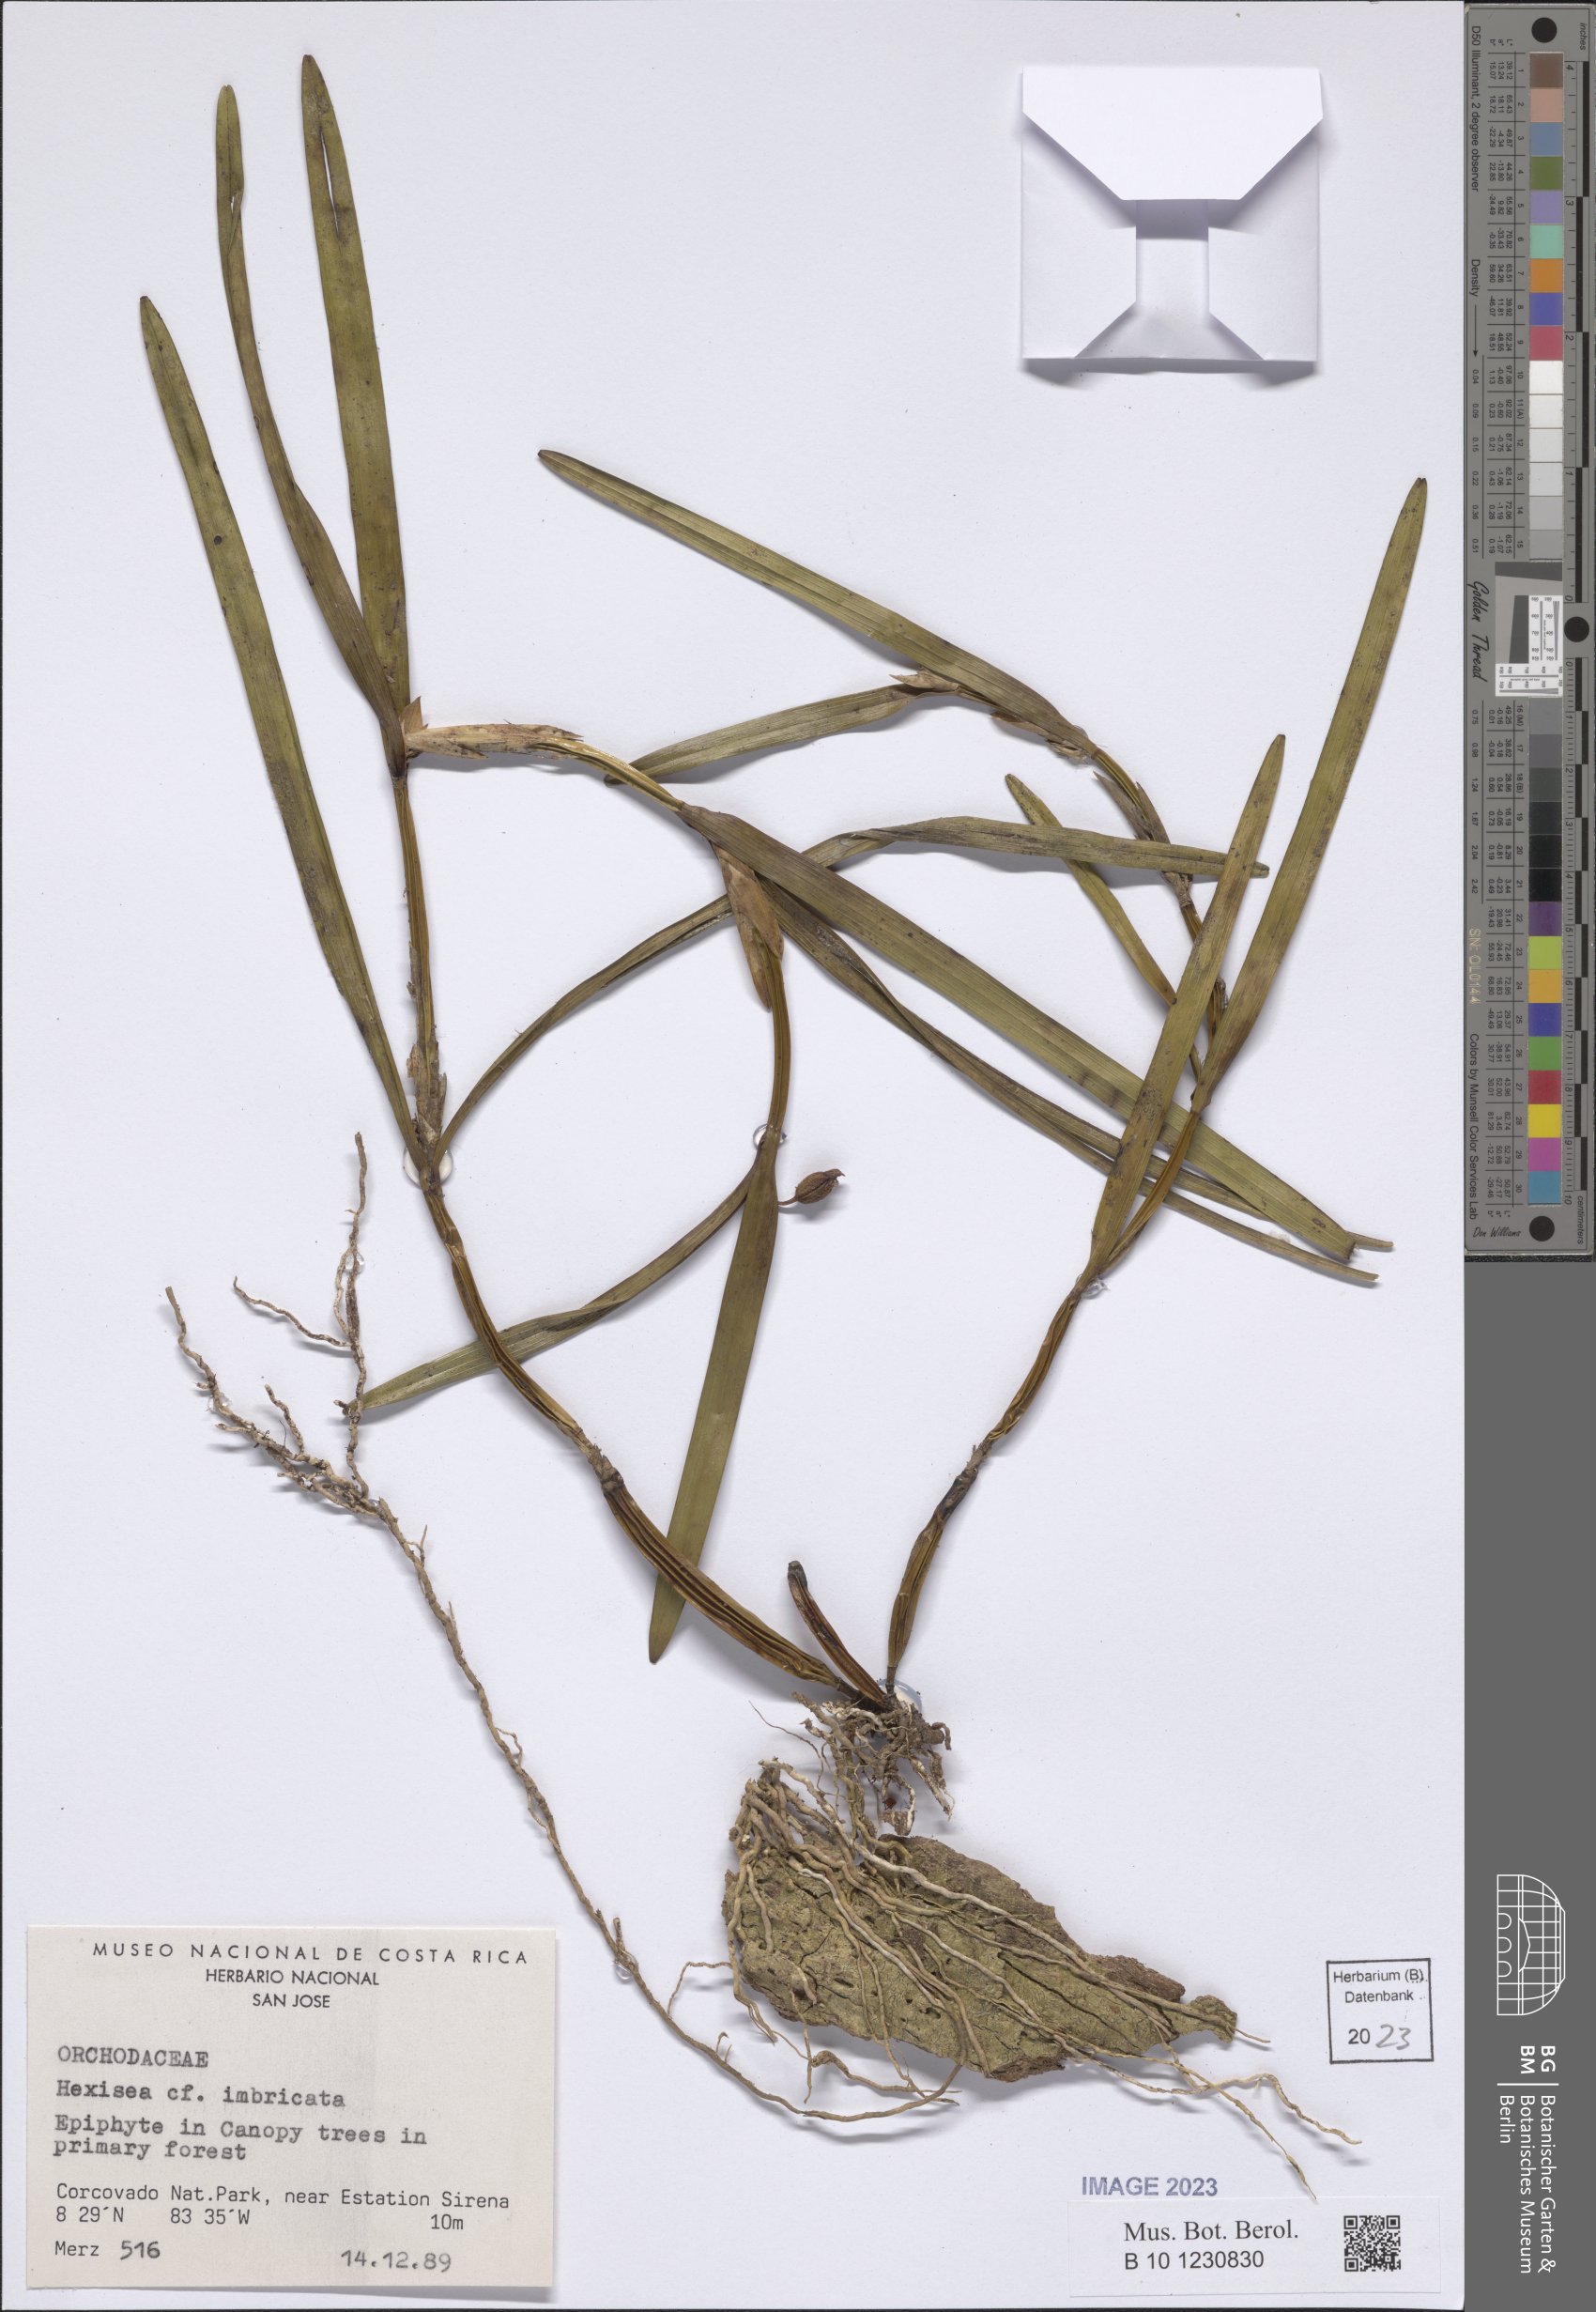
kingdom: Plantae
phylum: Tracheophyta
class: Liliopsida
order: Asparagales
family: Orchidaceae
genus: Scaphyglottis
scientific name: Scaphyglottis imbricata
